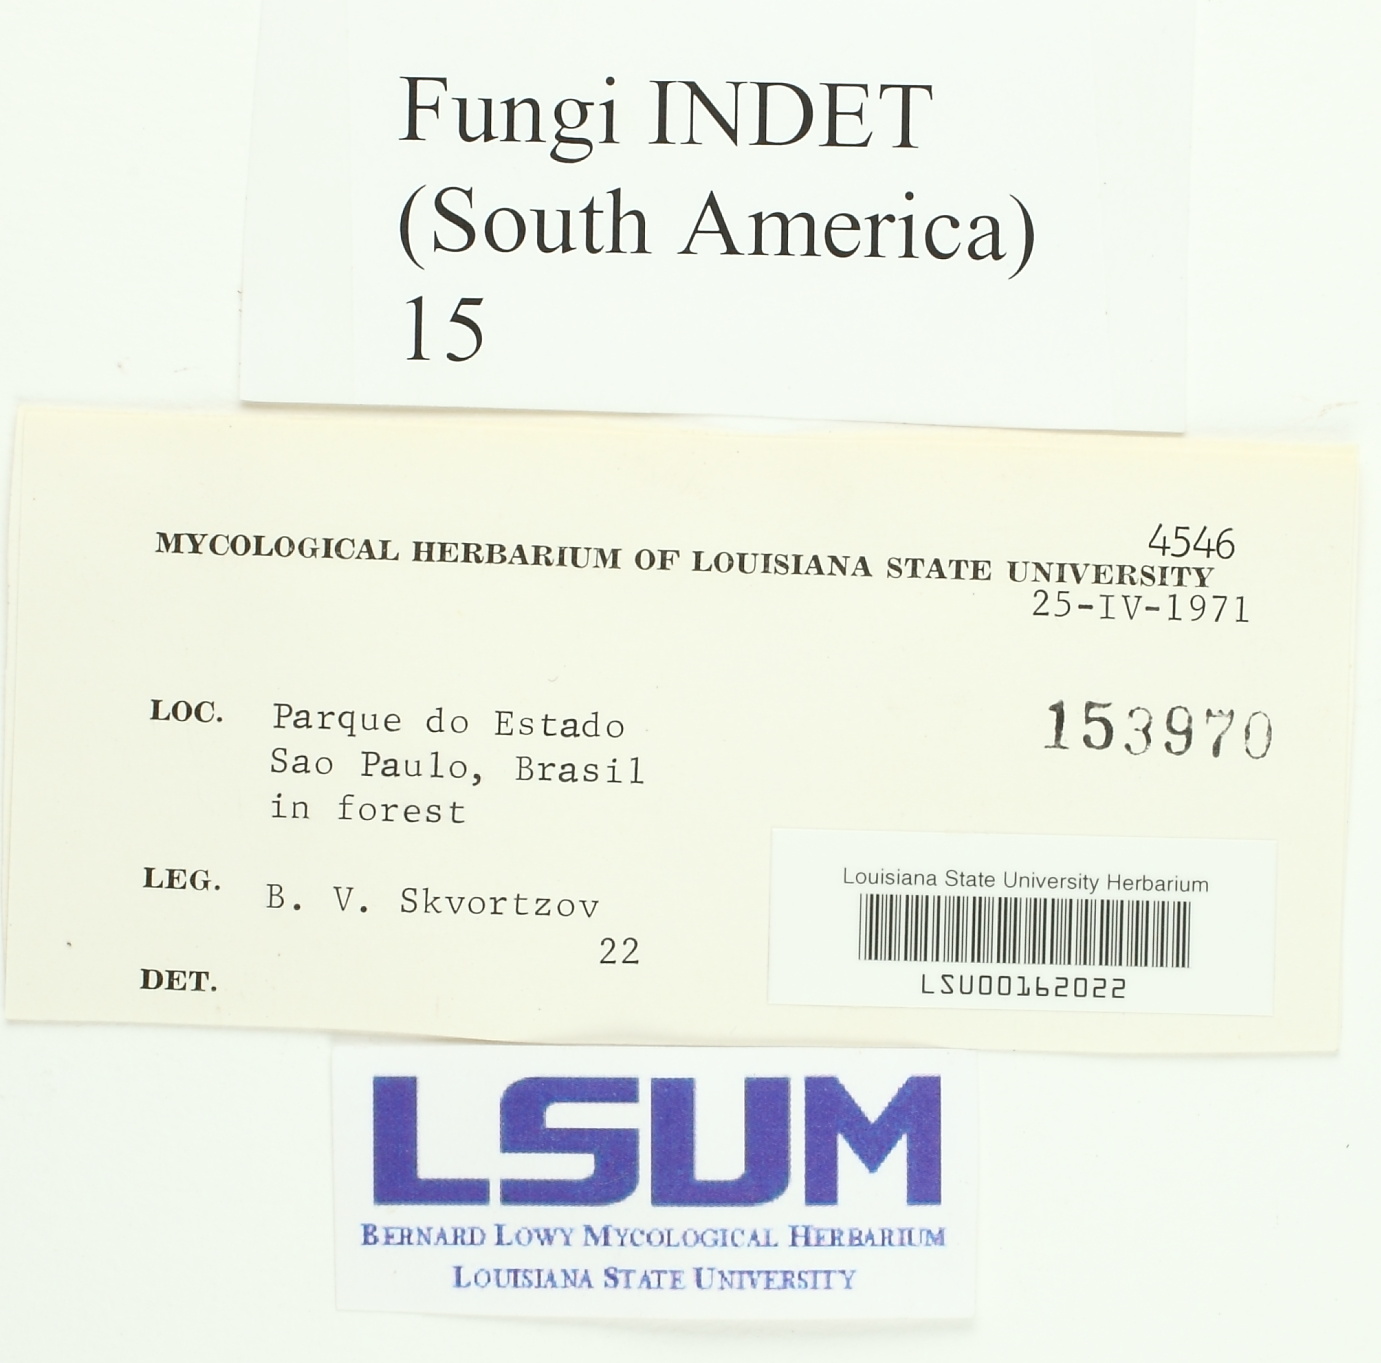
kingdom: Fungi
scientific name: Fungi
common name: Fungi
